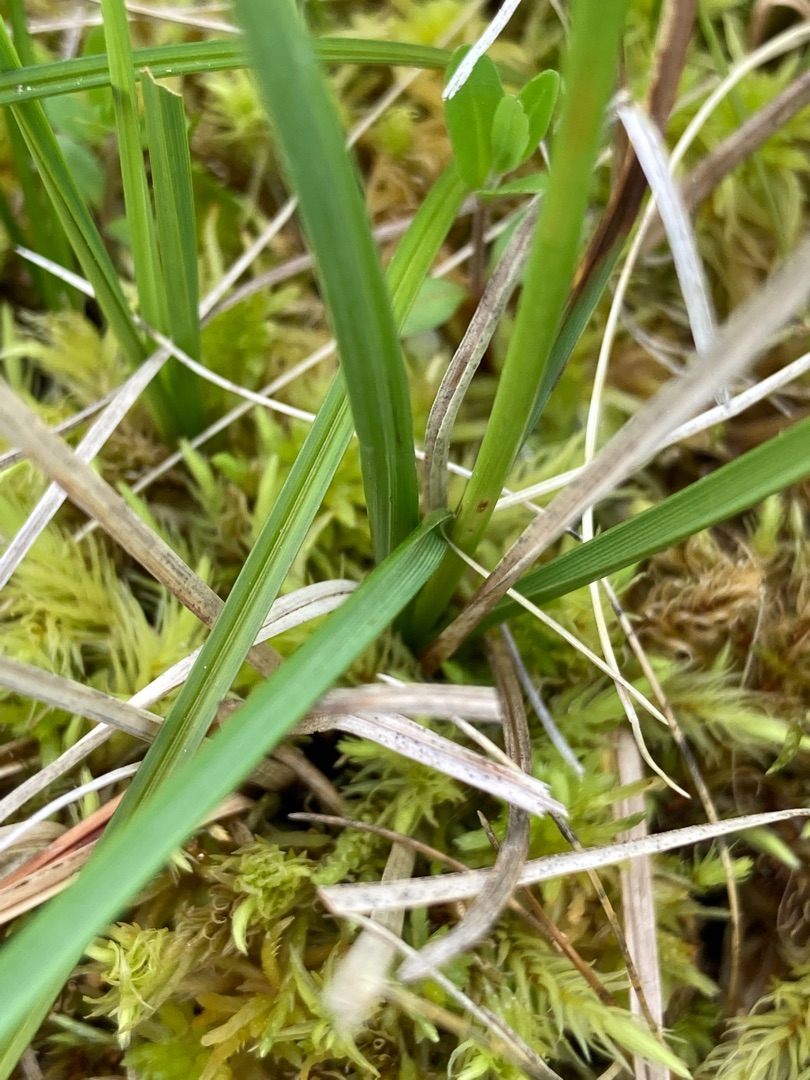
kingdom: Plantae
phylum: Tracheophyta
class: Liliopsida
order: Poales
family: Cyperaceae
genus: Carex
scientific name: Carex rostrata
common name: Næb-star
